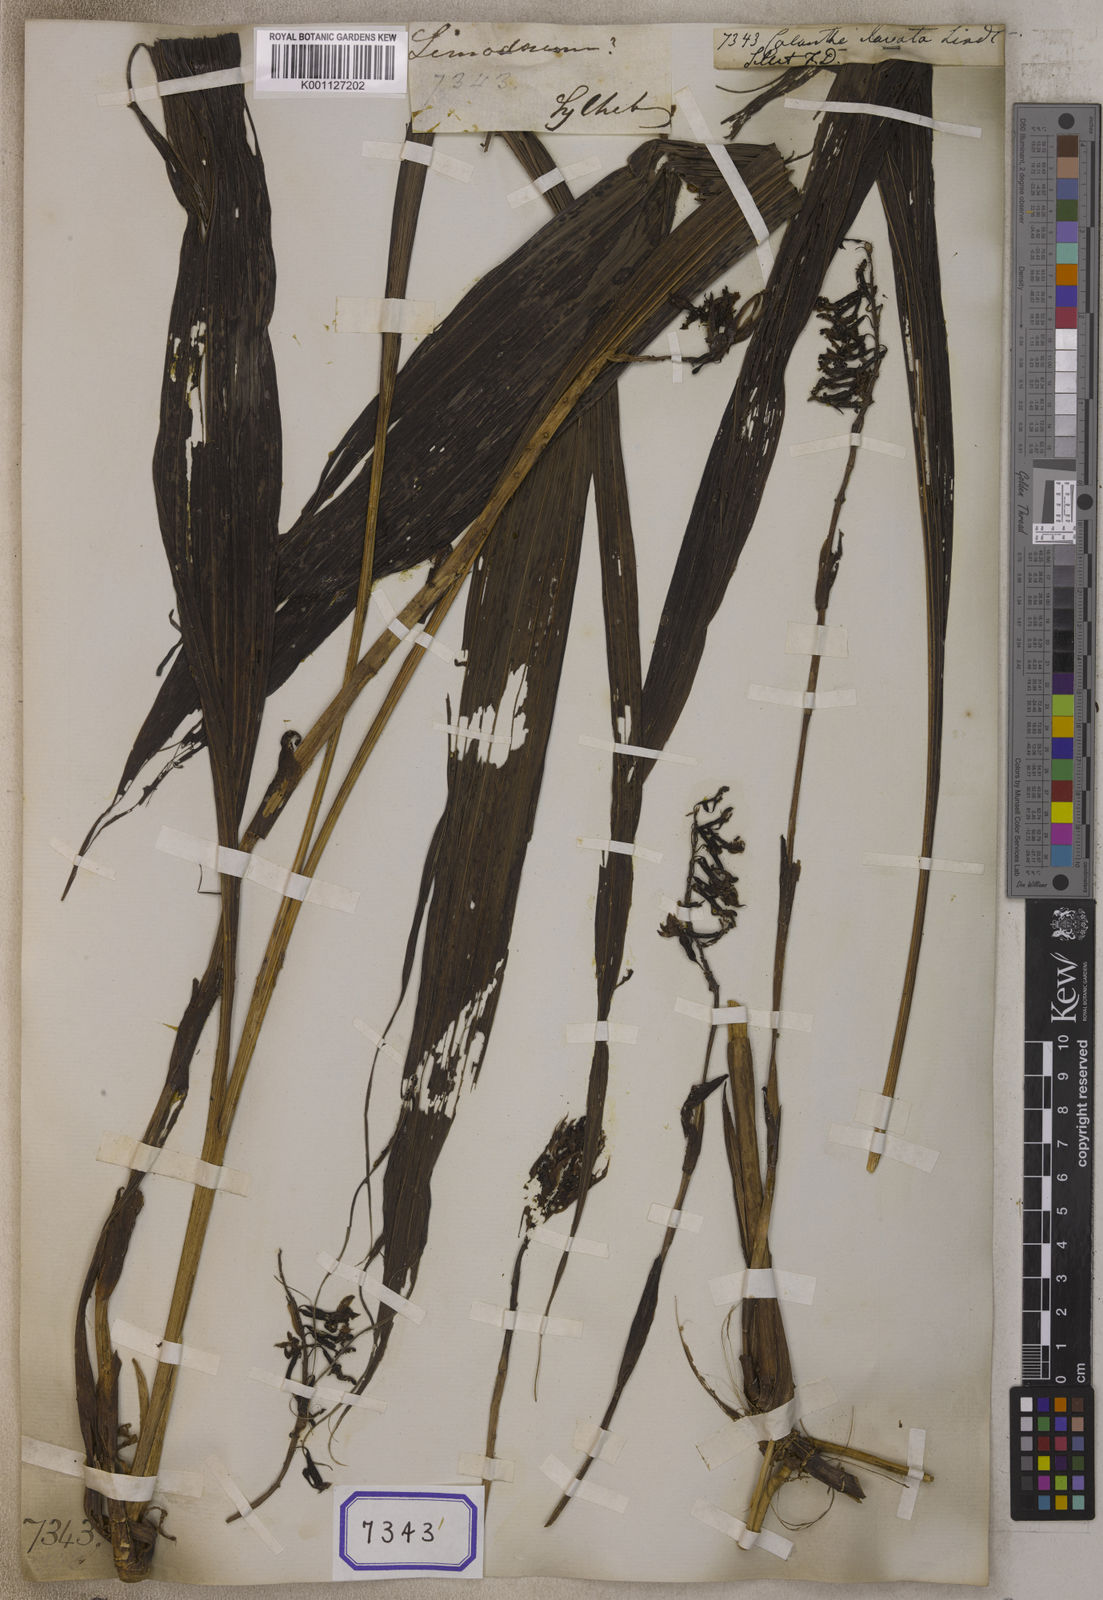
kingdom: Plantae
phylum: Tracheophyta
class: Liliopsida
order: Asparagales
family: Orchidaceae
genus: Calanthe
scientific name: Calanthe clavata
